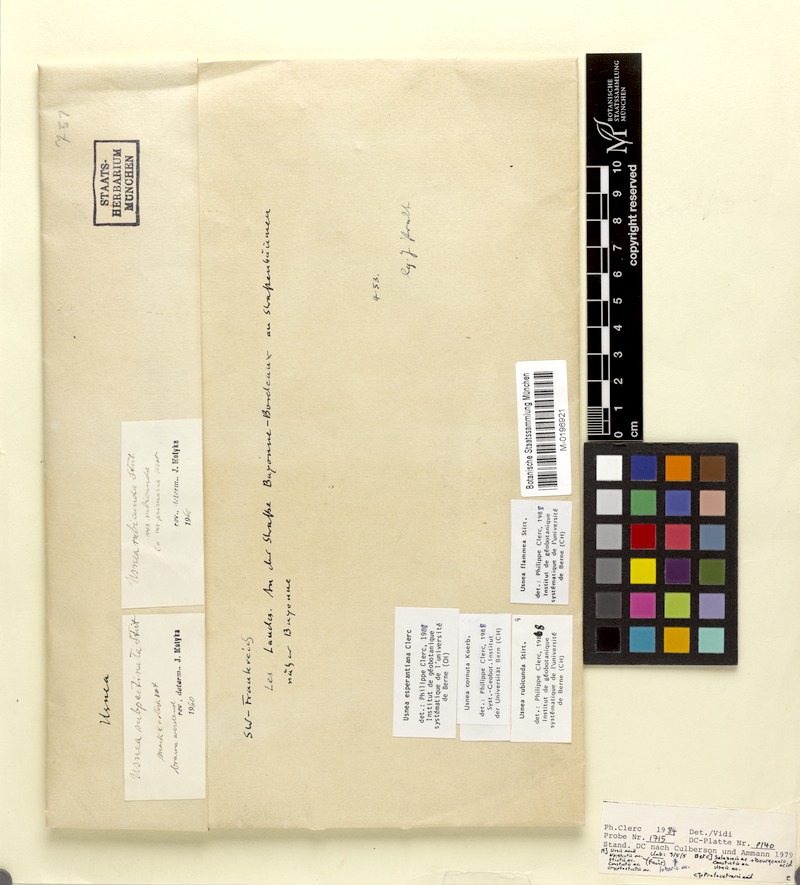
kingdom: Fungi
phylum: Ascomycota
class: Lecanoromycetes
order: Lecanorales
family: Parmeliaceae
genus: Usnea
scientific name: Usnea cornuta
